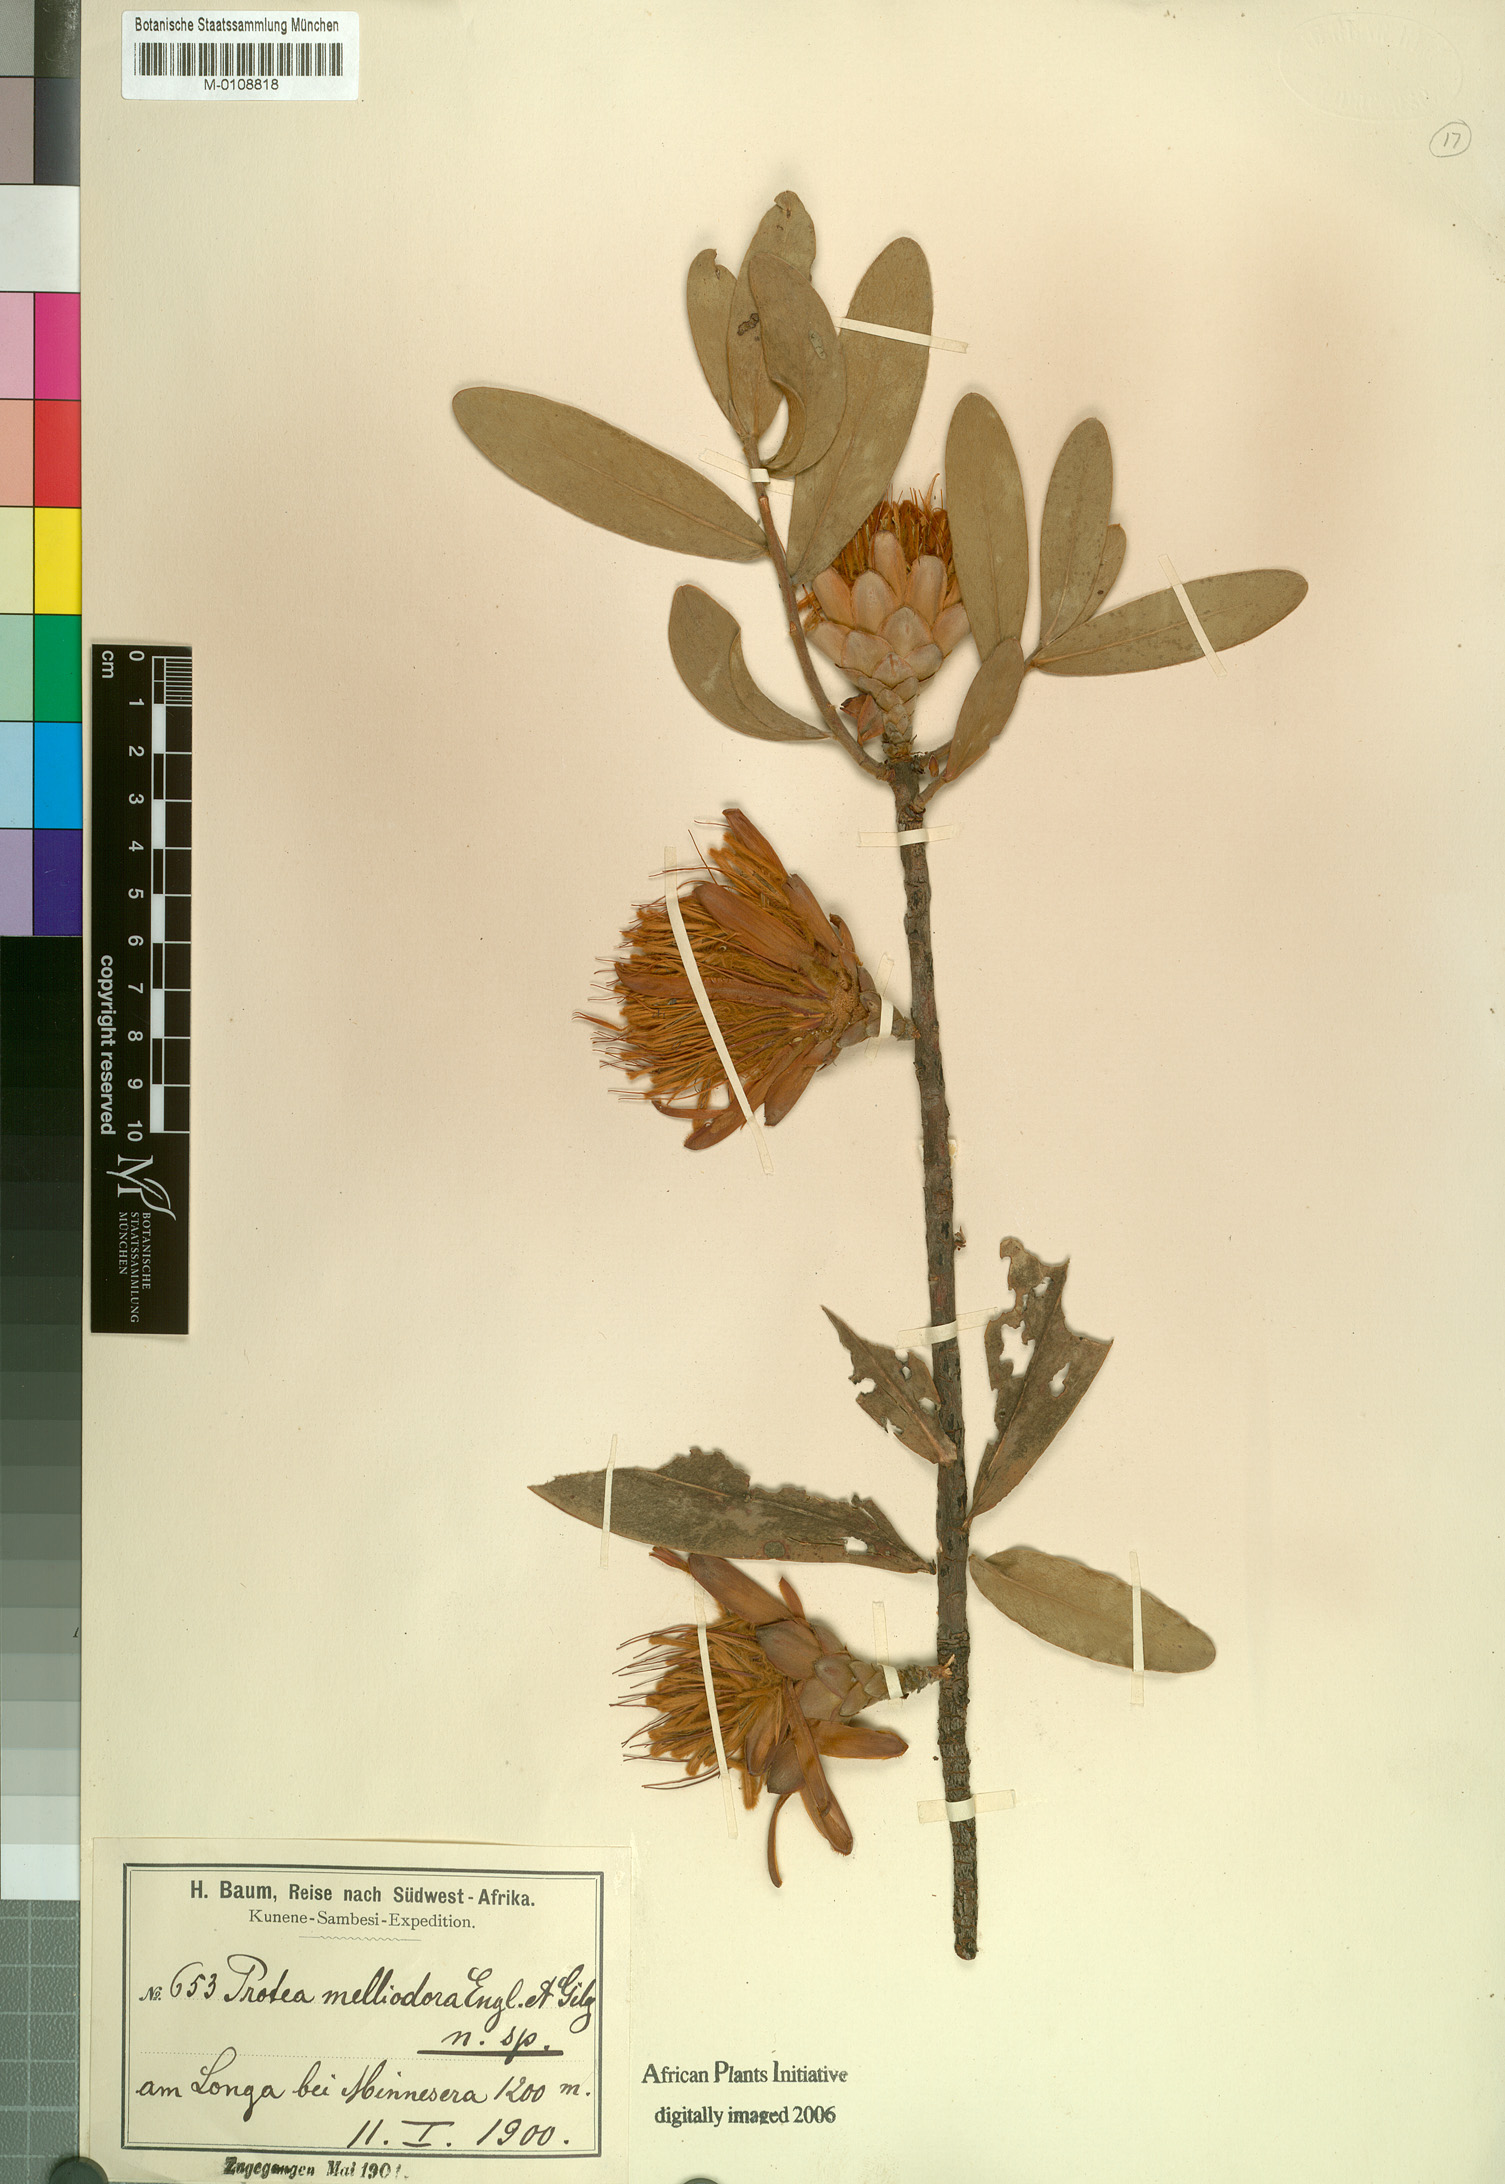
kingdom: Plantae
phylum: Tracheophyta
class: Magnoliopsida
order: Proteales
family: Proteaceae
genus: Protea
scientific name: Protea welwitschii
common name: Cluster-head protea
